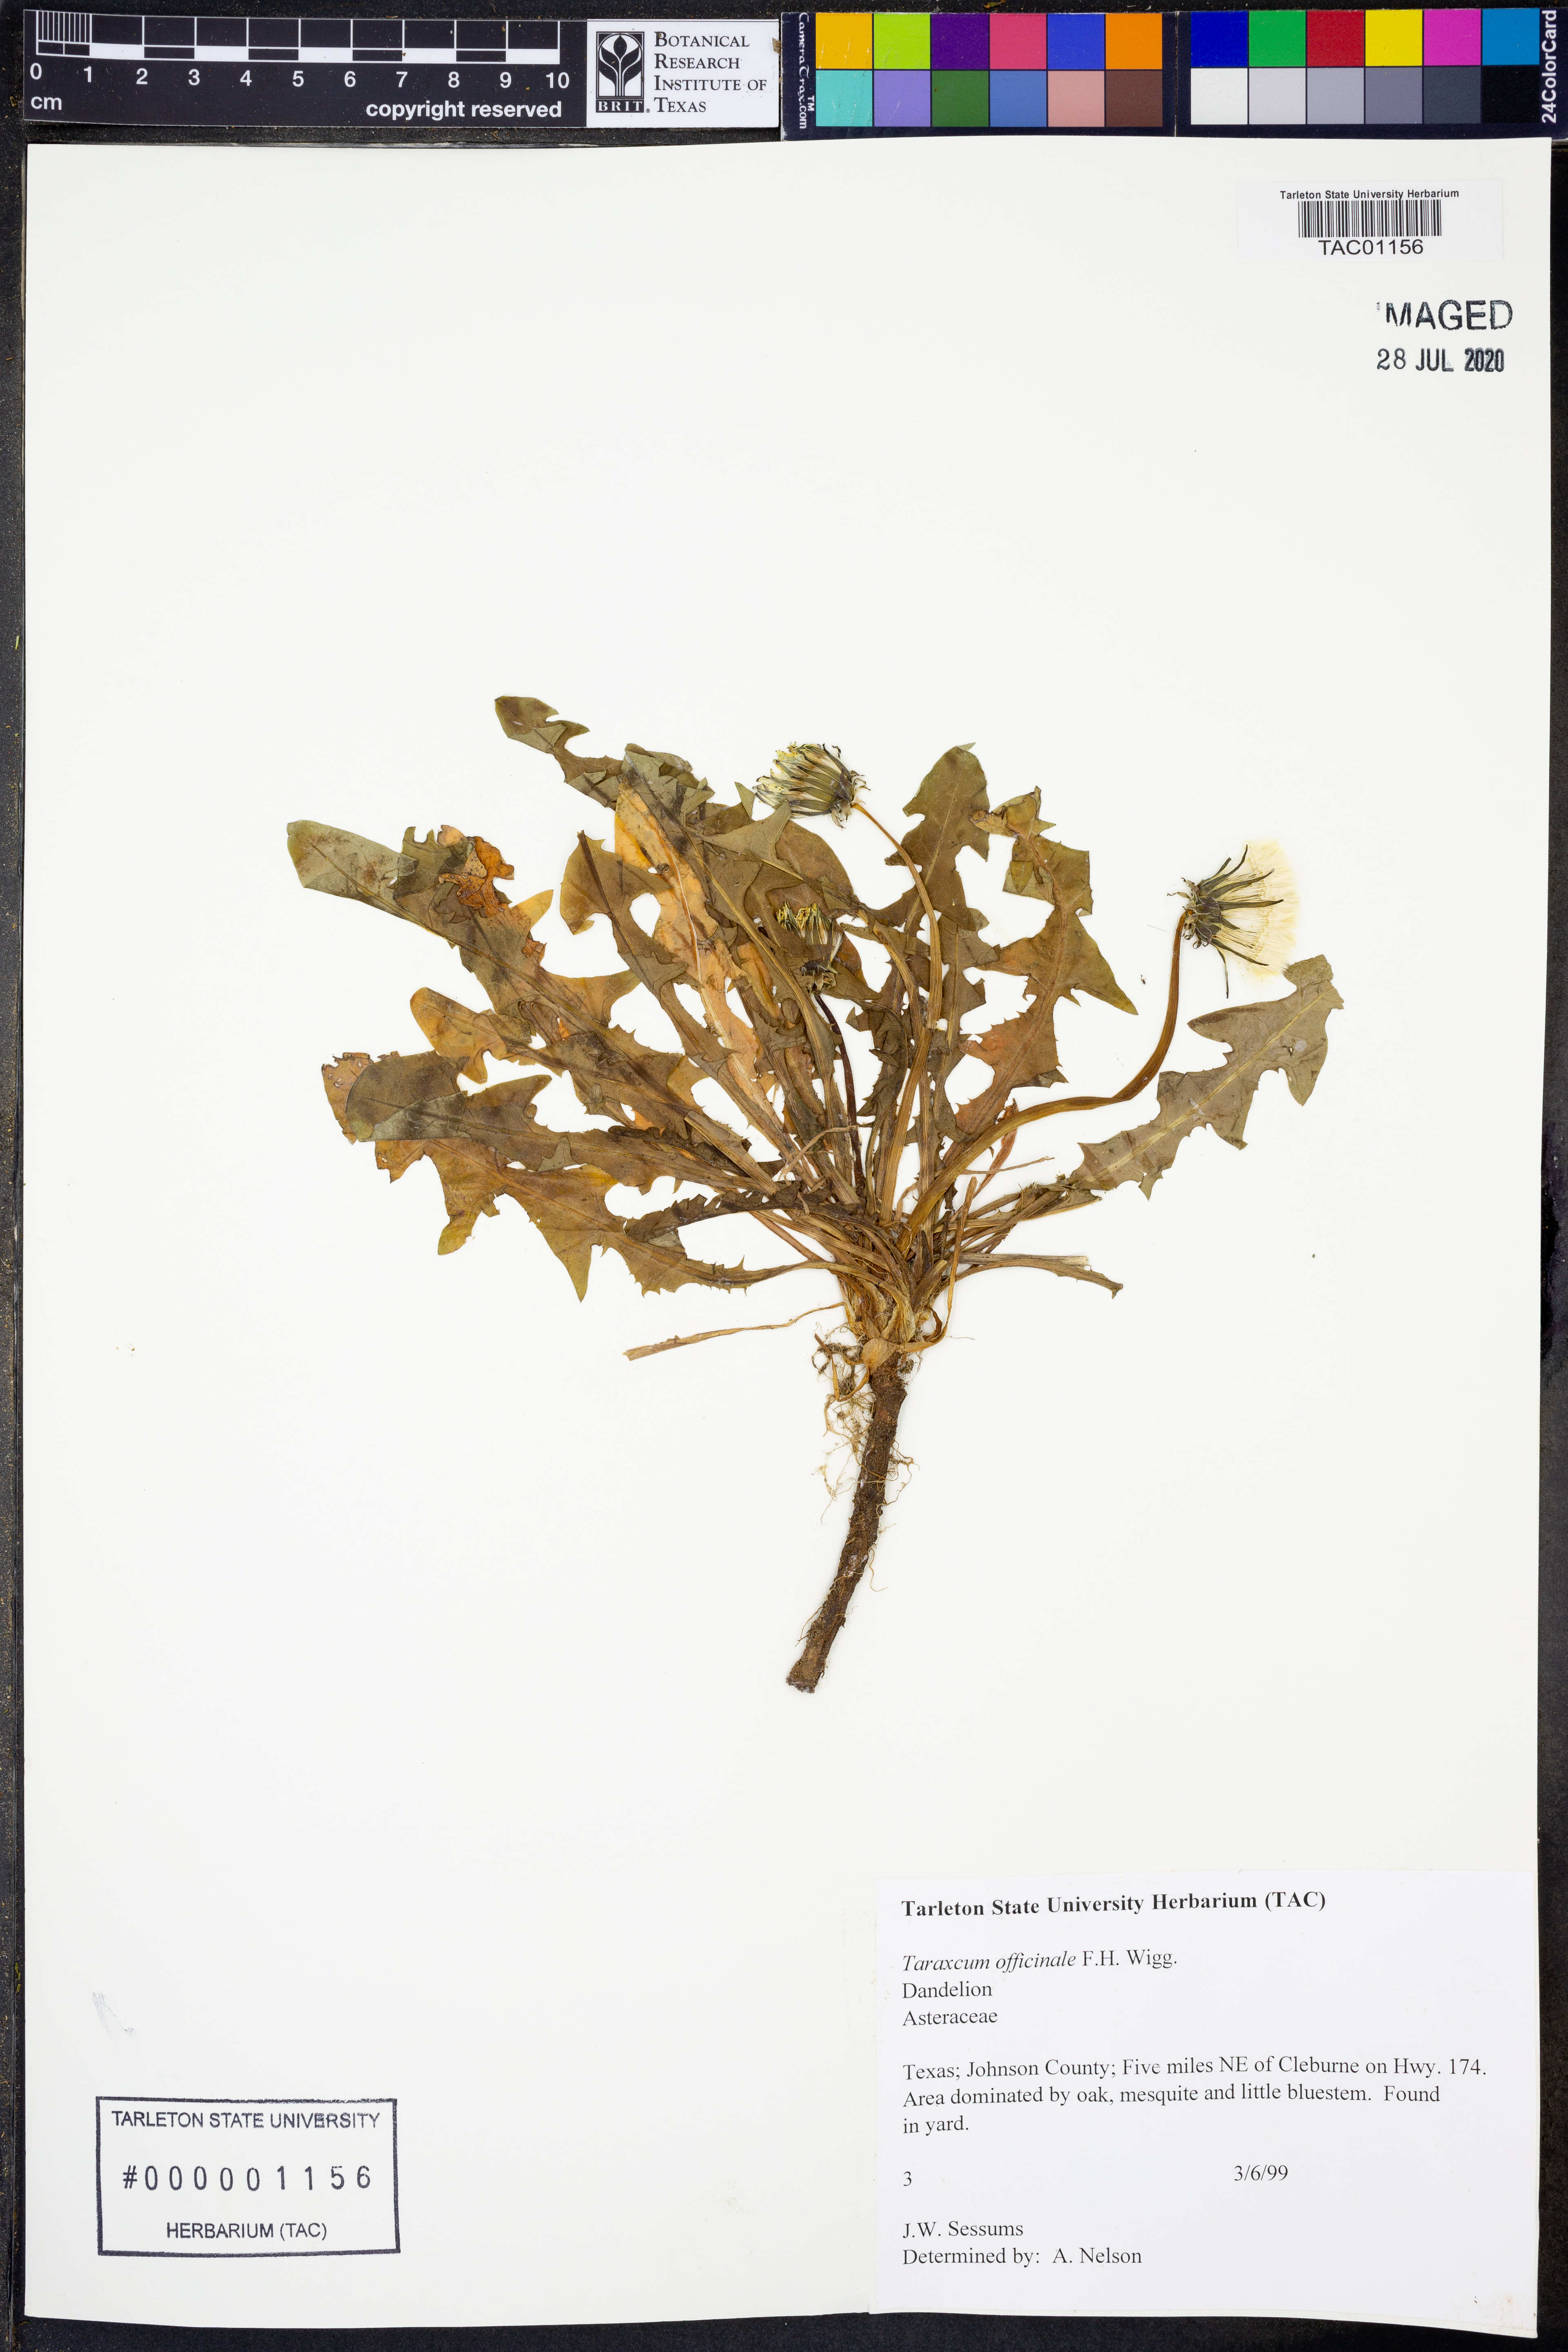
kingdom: Plantae
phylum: Tracheophyta
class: Magnoliopsida
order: Asterales
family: Asteraceae
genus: Taraxacum
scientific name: Taraxacum officinale
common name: Common dandelion
